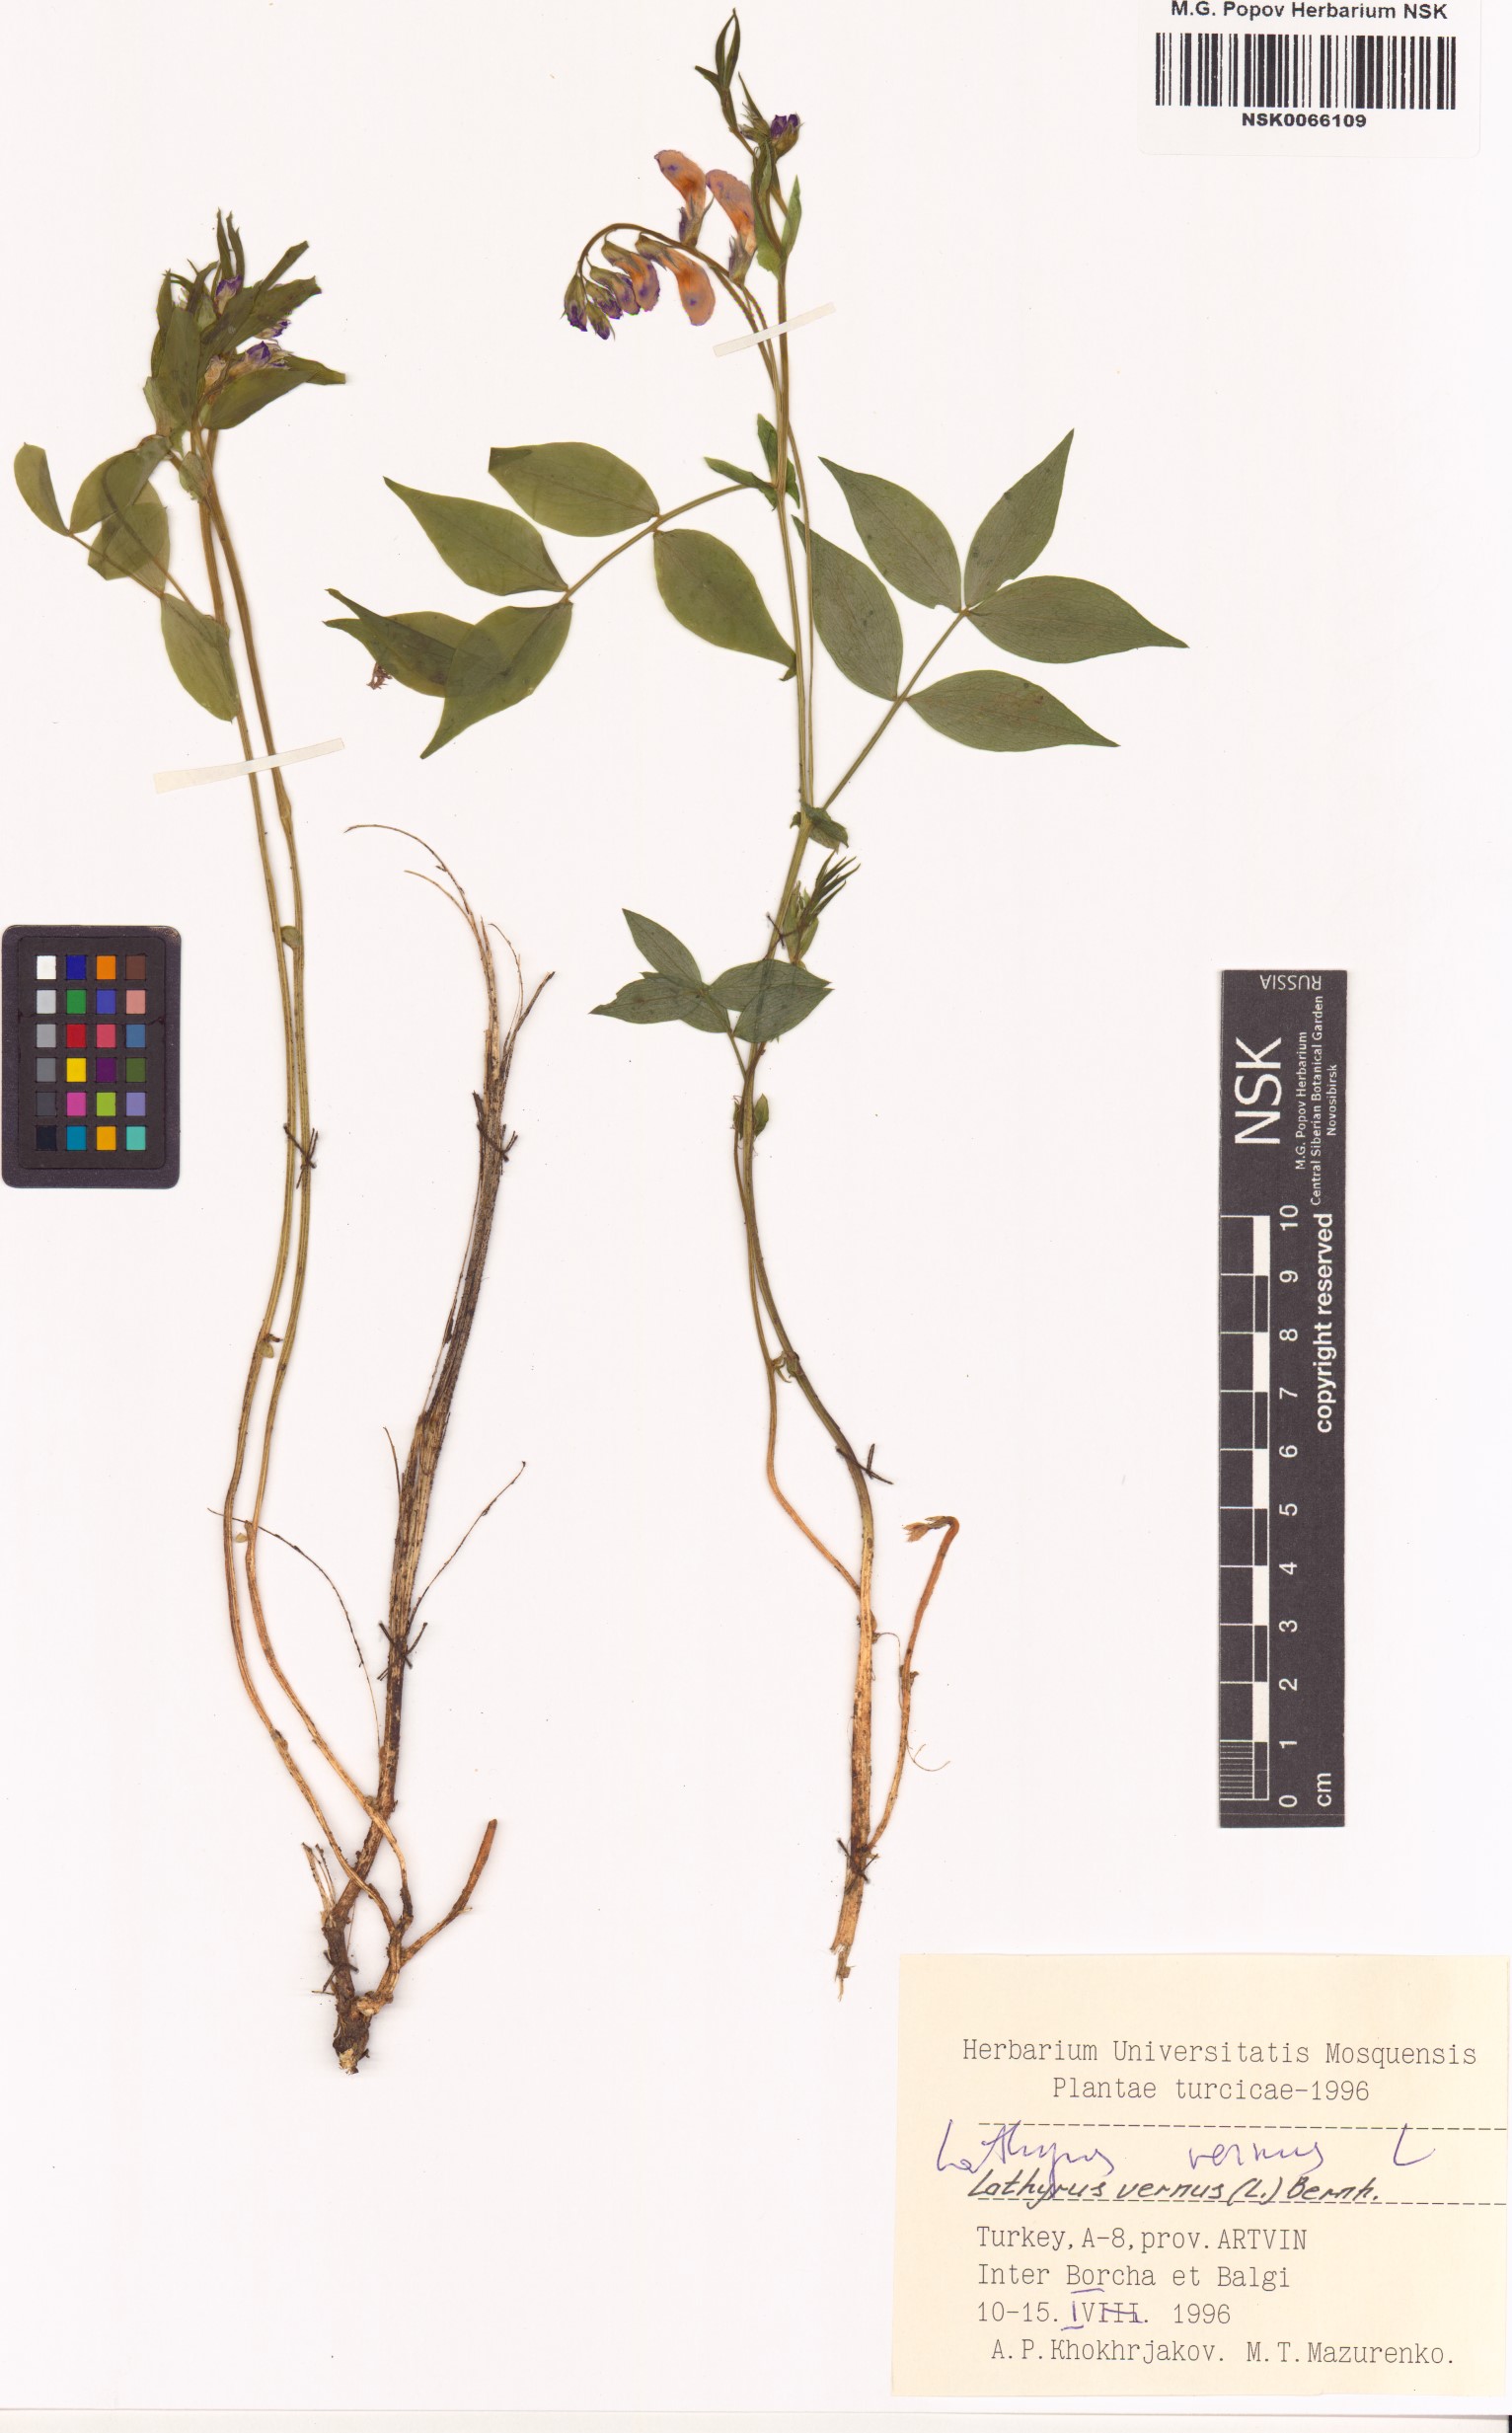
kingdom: Plantae
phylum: Tracheophyta
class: Magnoliopsida
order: Fabales
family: Fabaceae
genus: Lathyrus
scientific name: Lathyrus vernus
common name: Spring pea
